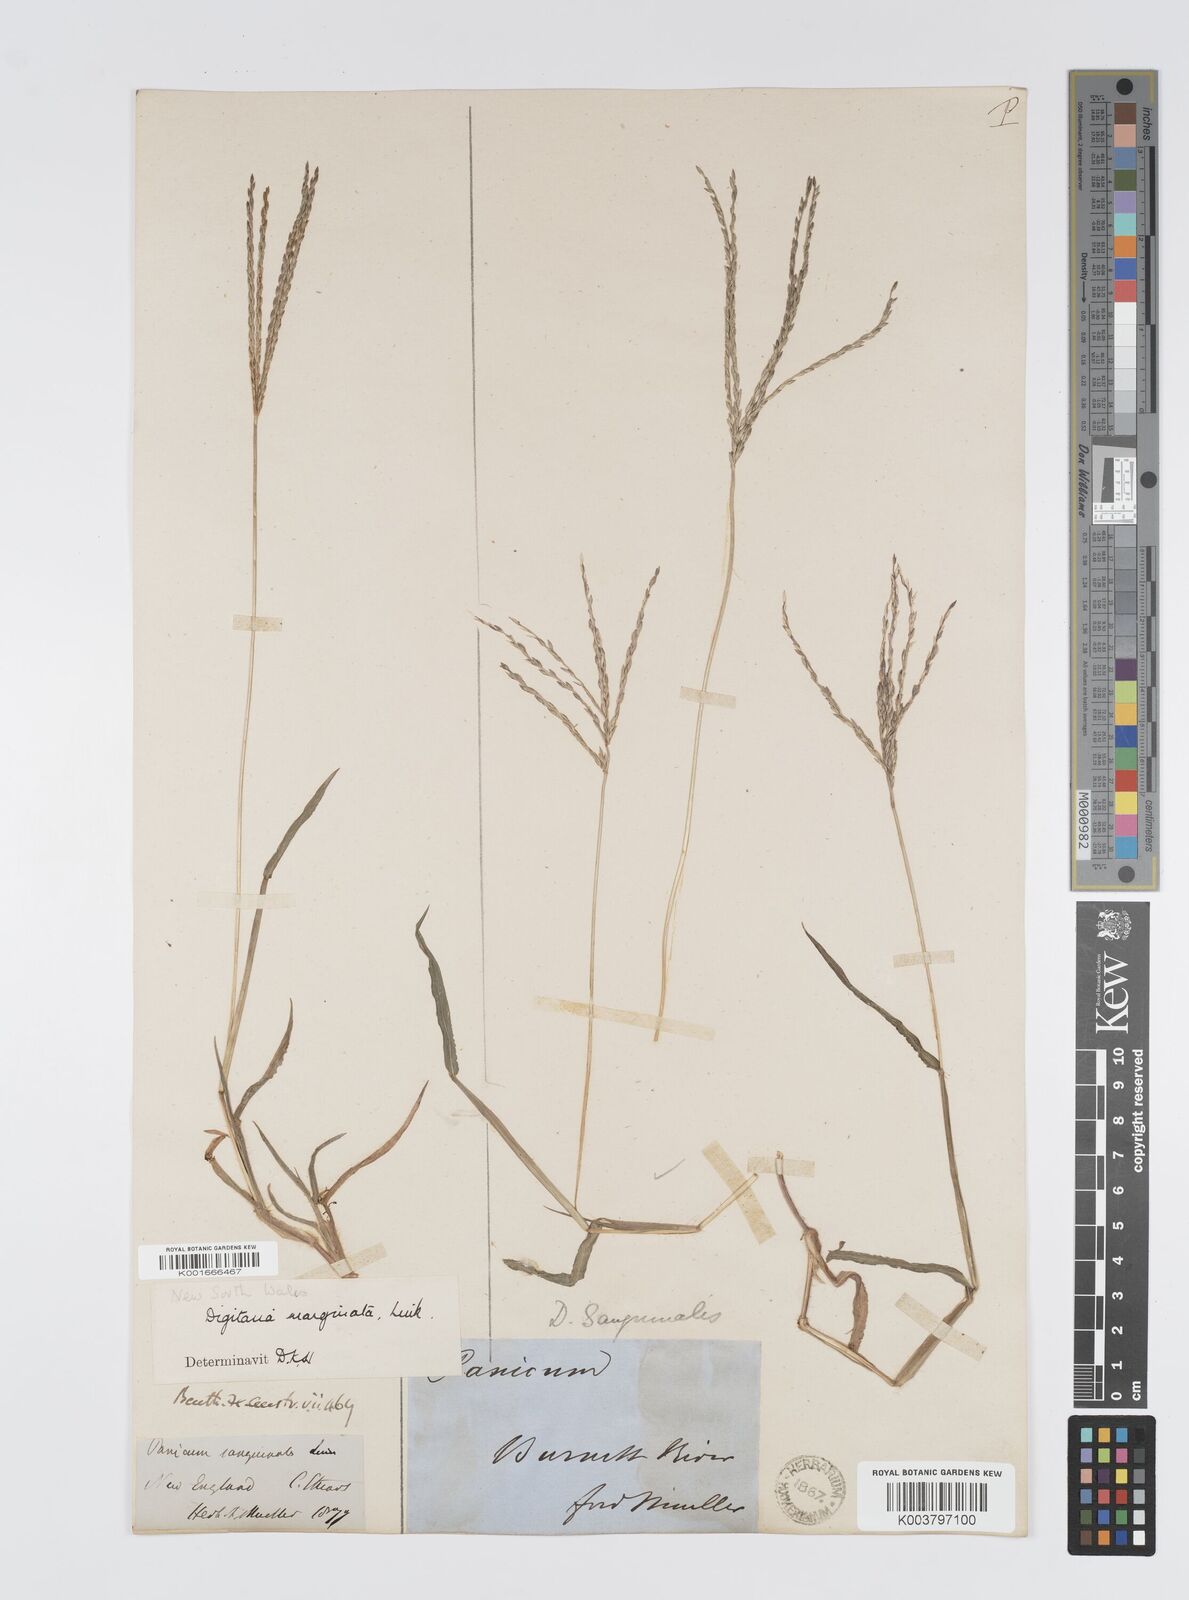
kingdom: Plantae
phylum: Tracheophyta
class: Liliopsida
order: Poales
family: Poaceae
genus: Digitaria
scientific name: Digitaria ciliaris
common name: Tropical finger-grass
